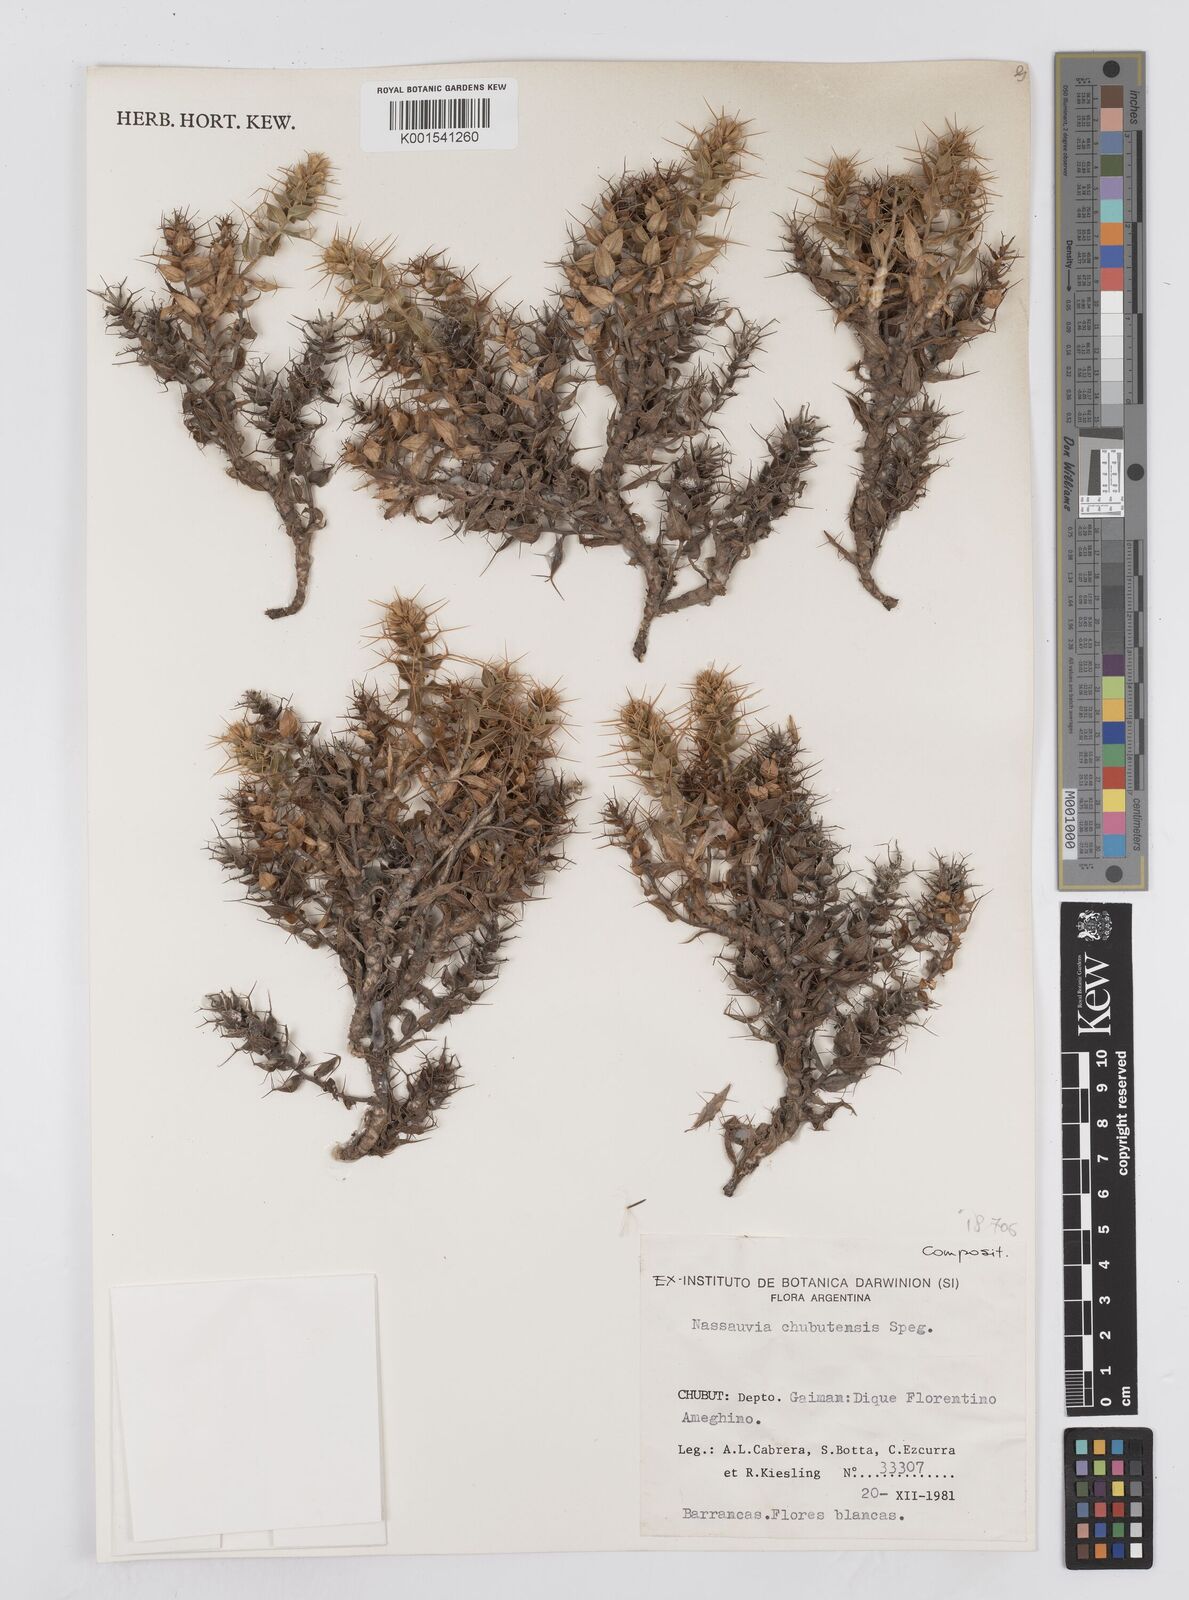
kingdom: Plantae
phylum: Tracheophyta
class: Magnoliopsida
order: Asterales
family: Asteraceae
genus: Nassauvia
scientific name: Nassauvia chubutensis
